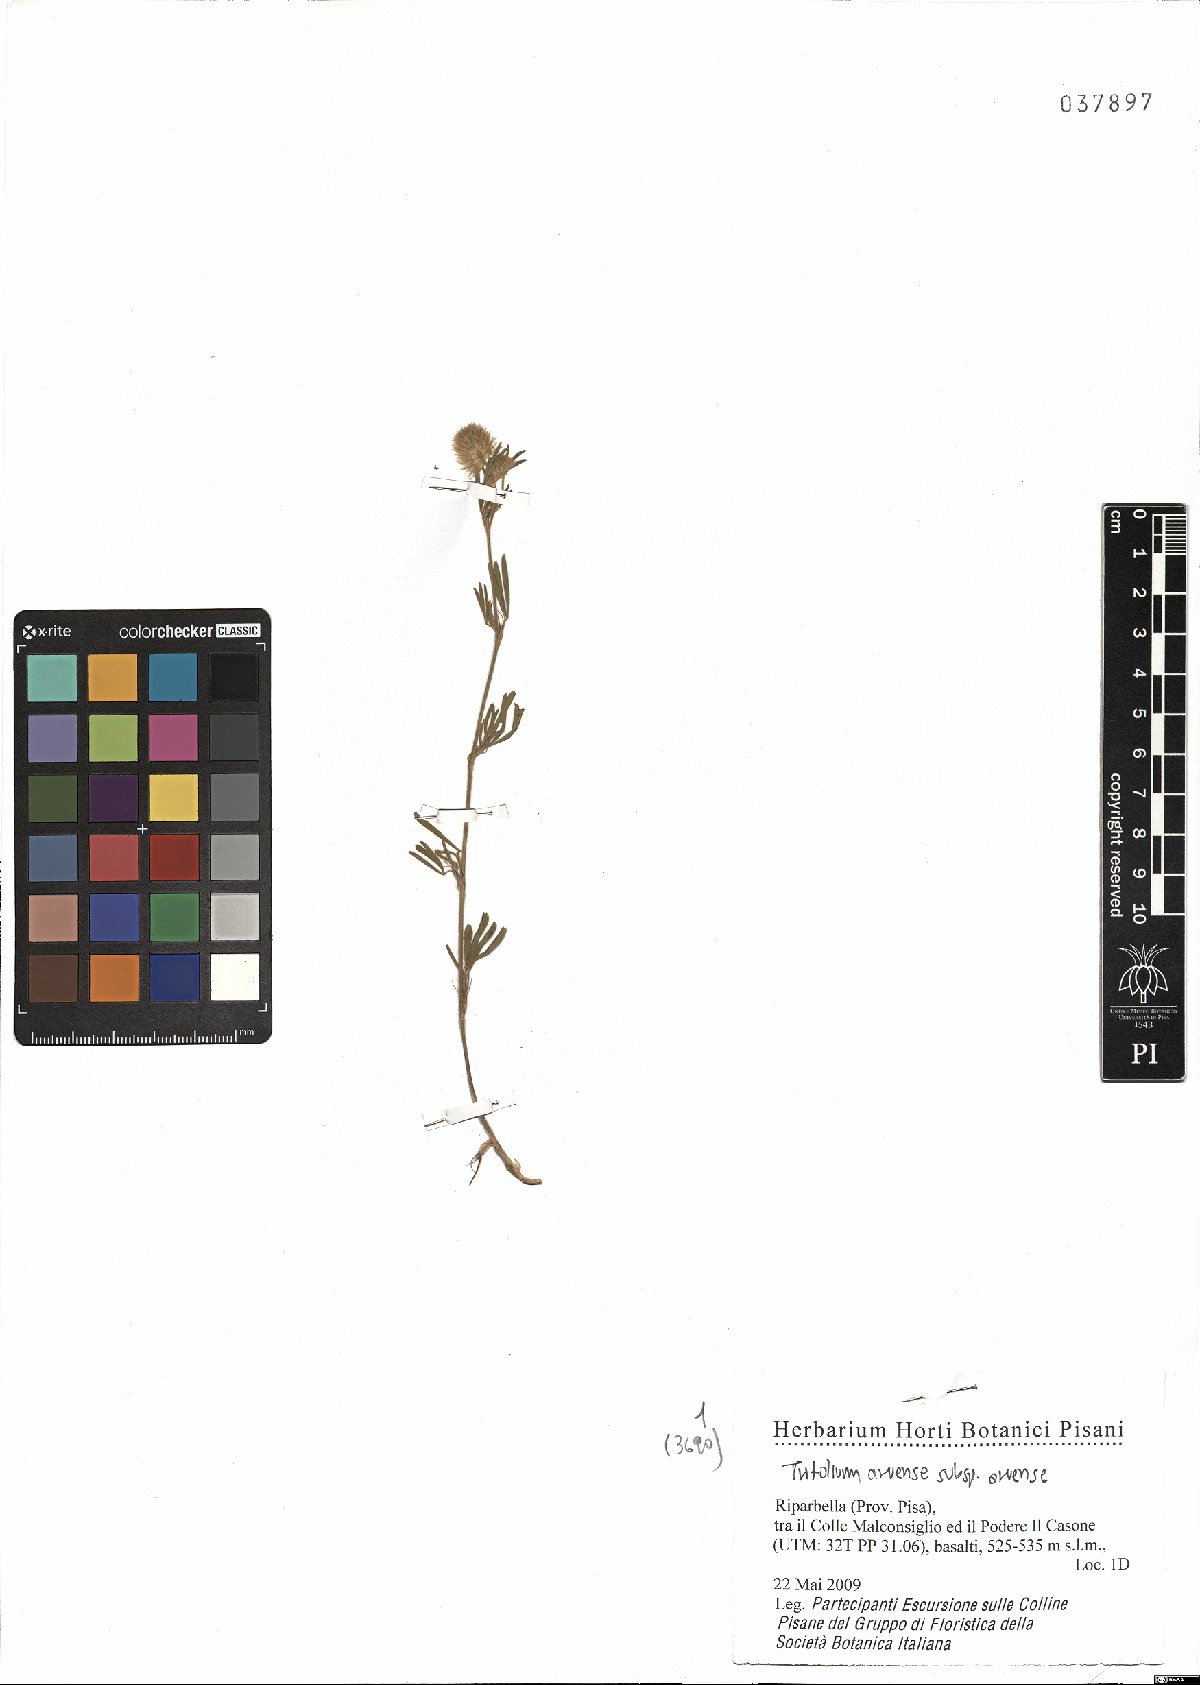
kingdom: Plantae
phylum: Tracheophyta
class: Magnoliopsida
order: Fabales
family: Fabaceae
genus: Trifolium
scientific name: Trifolium arvense
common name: Hare's-foot clover
